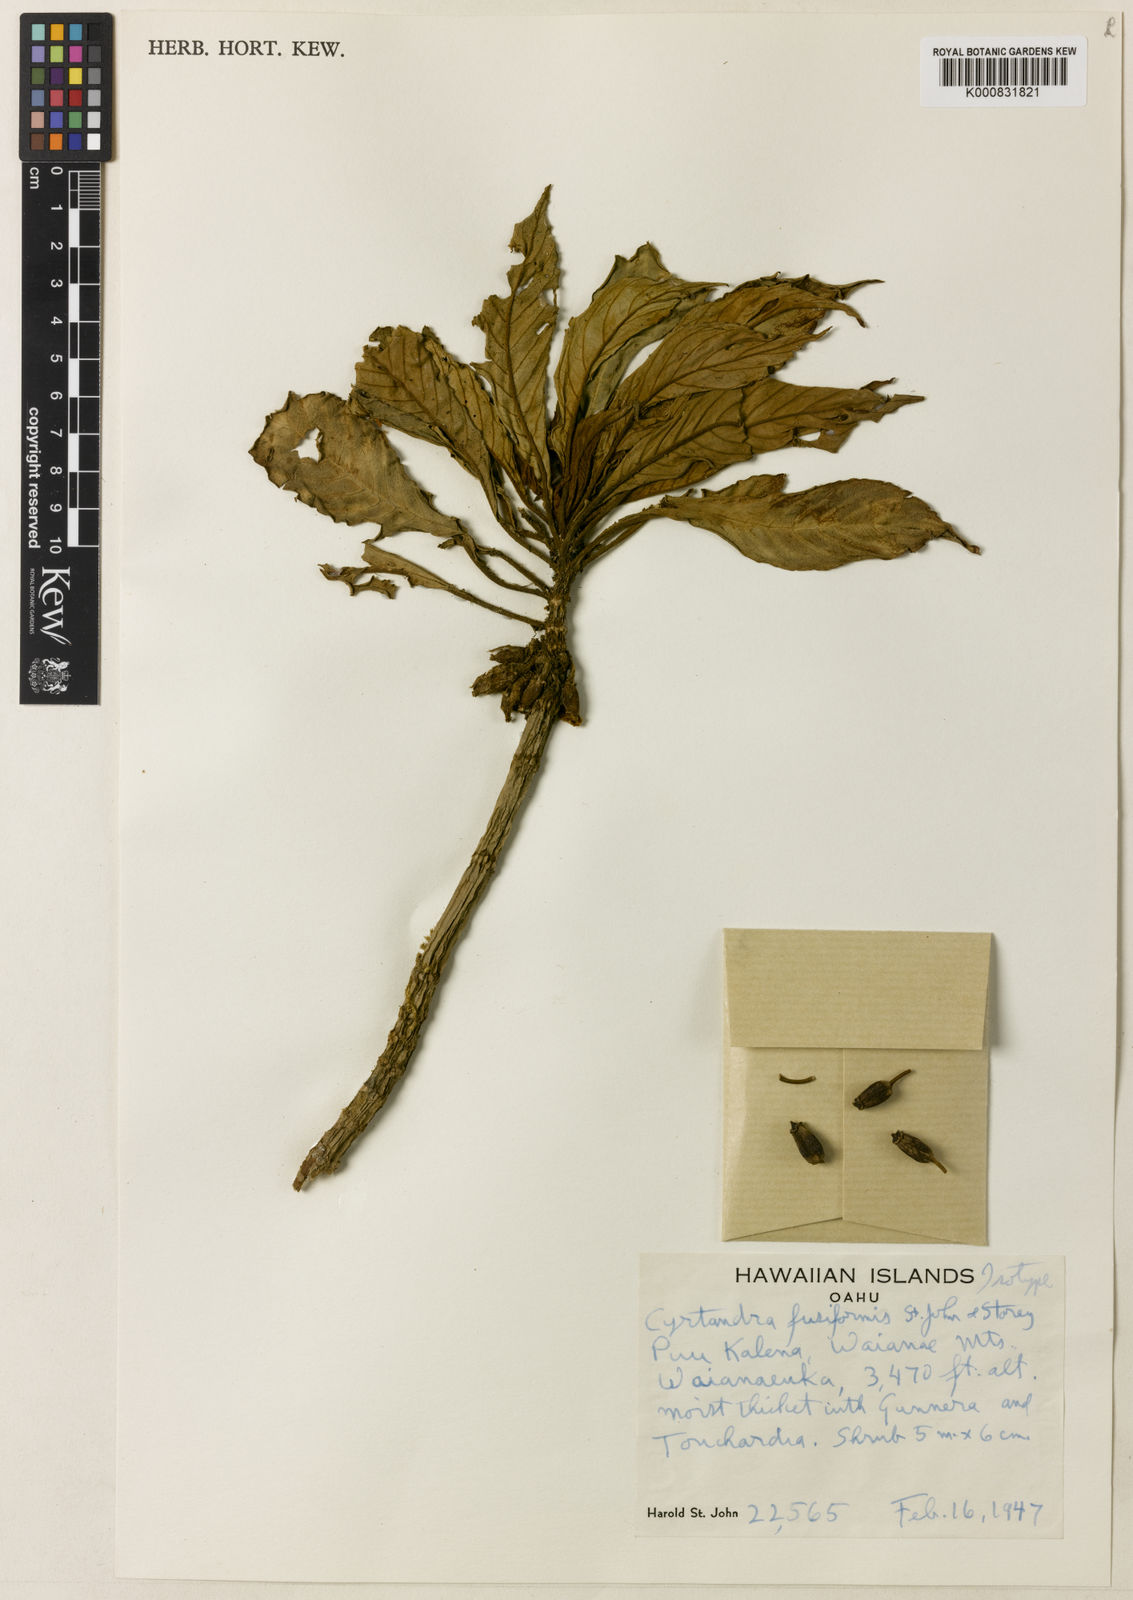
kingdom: Plantae
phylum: Tracheophyta
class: Magnoliopsida
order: Lamiales
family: Gesneriaceae
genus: Cyrtandra
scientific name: Cyrtandra hawaiensis
